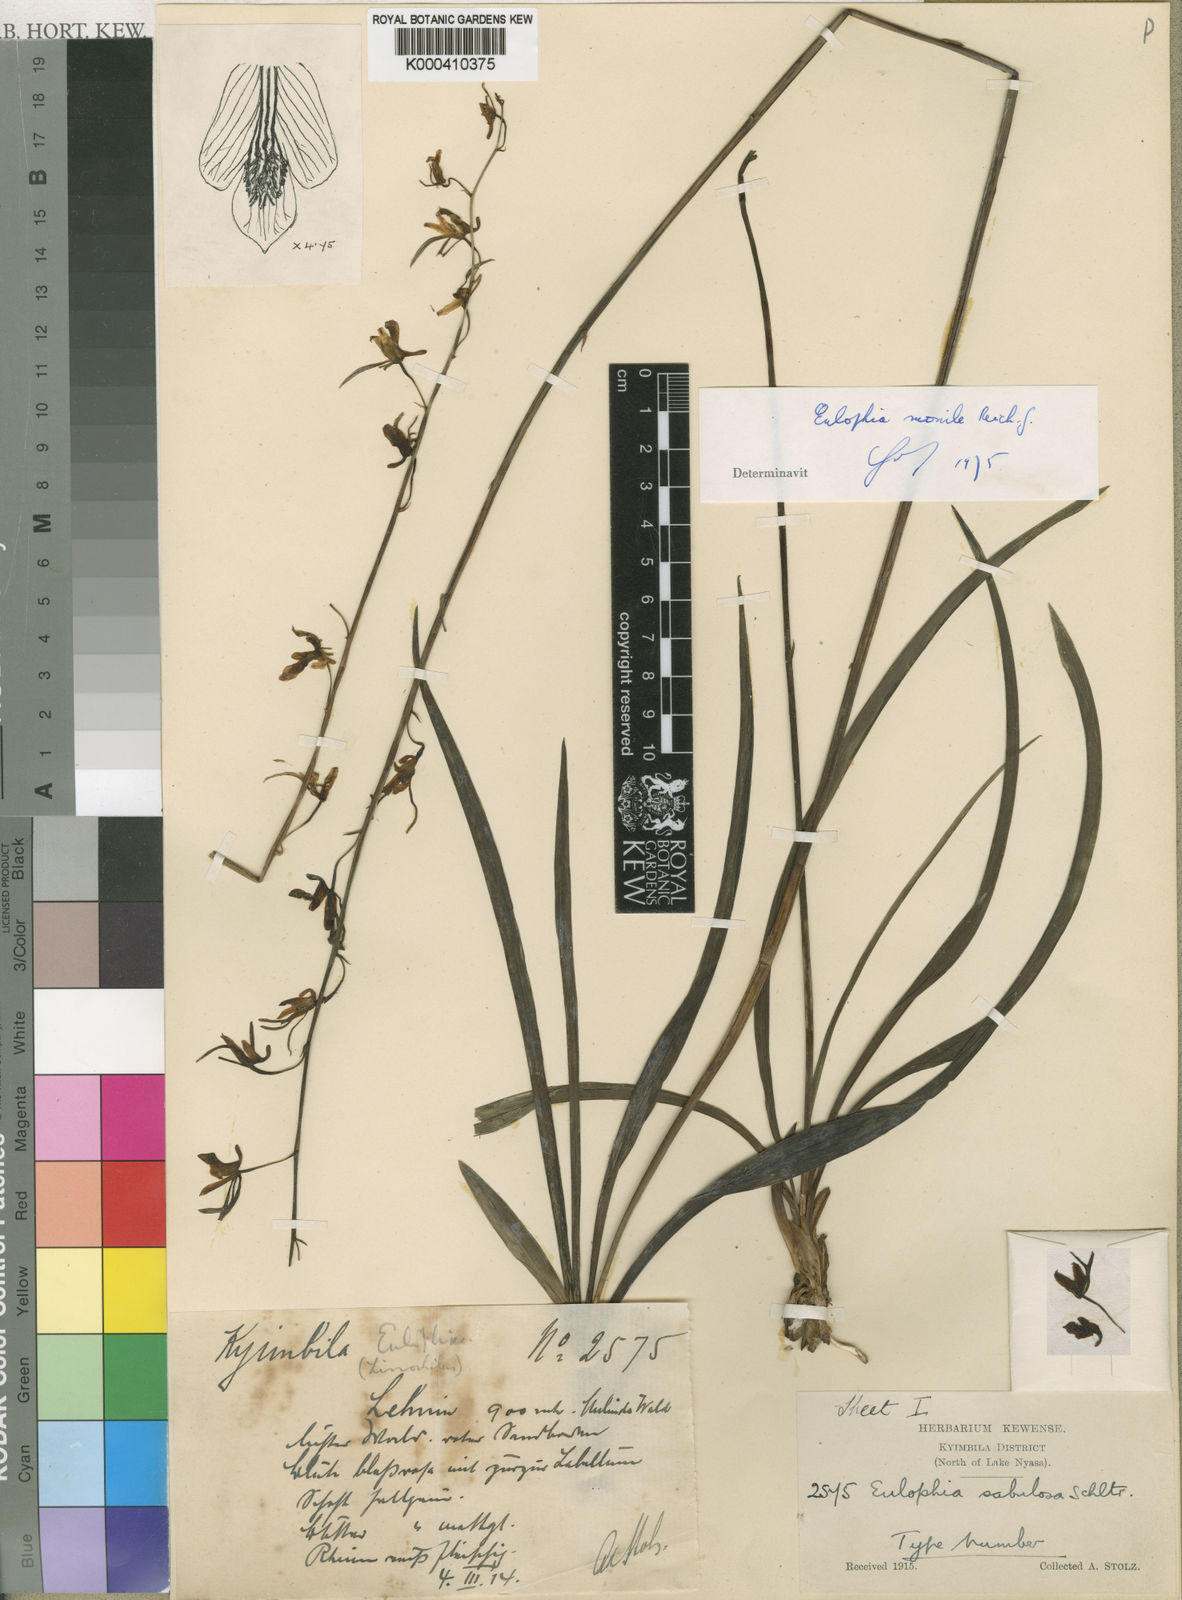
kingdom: Plantae
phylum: Tracheophyta
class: Liliopsida
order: Asparagales
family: Orchidaceae
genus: Eulophia
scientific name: Eulophia sabulosa
